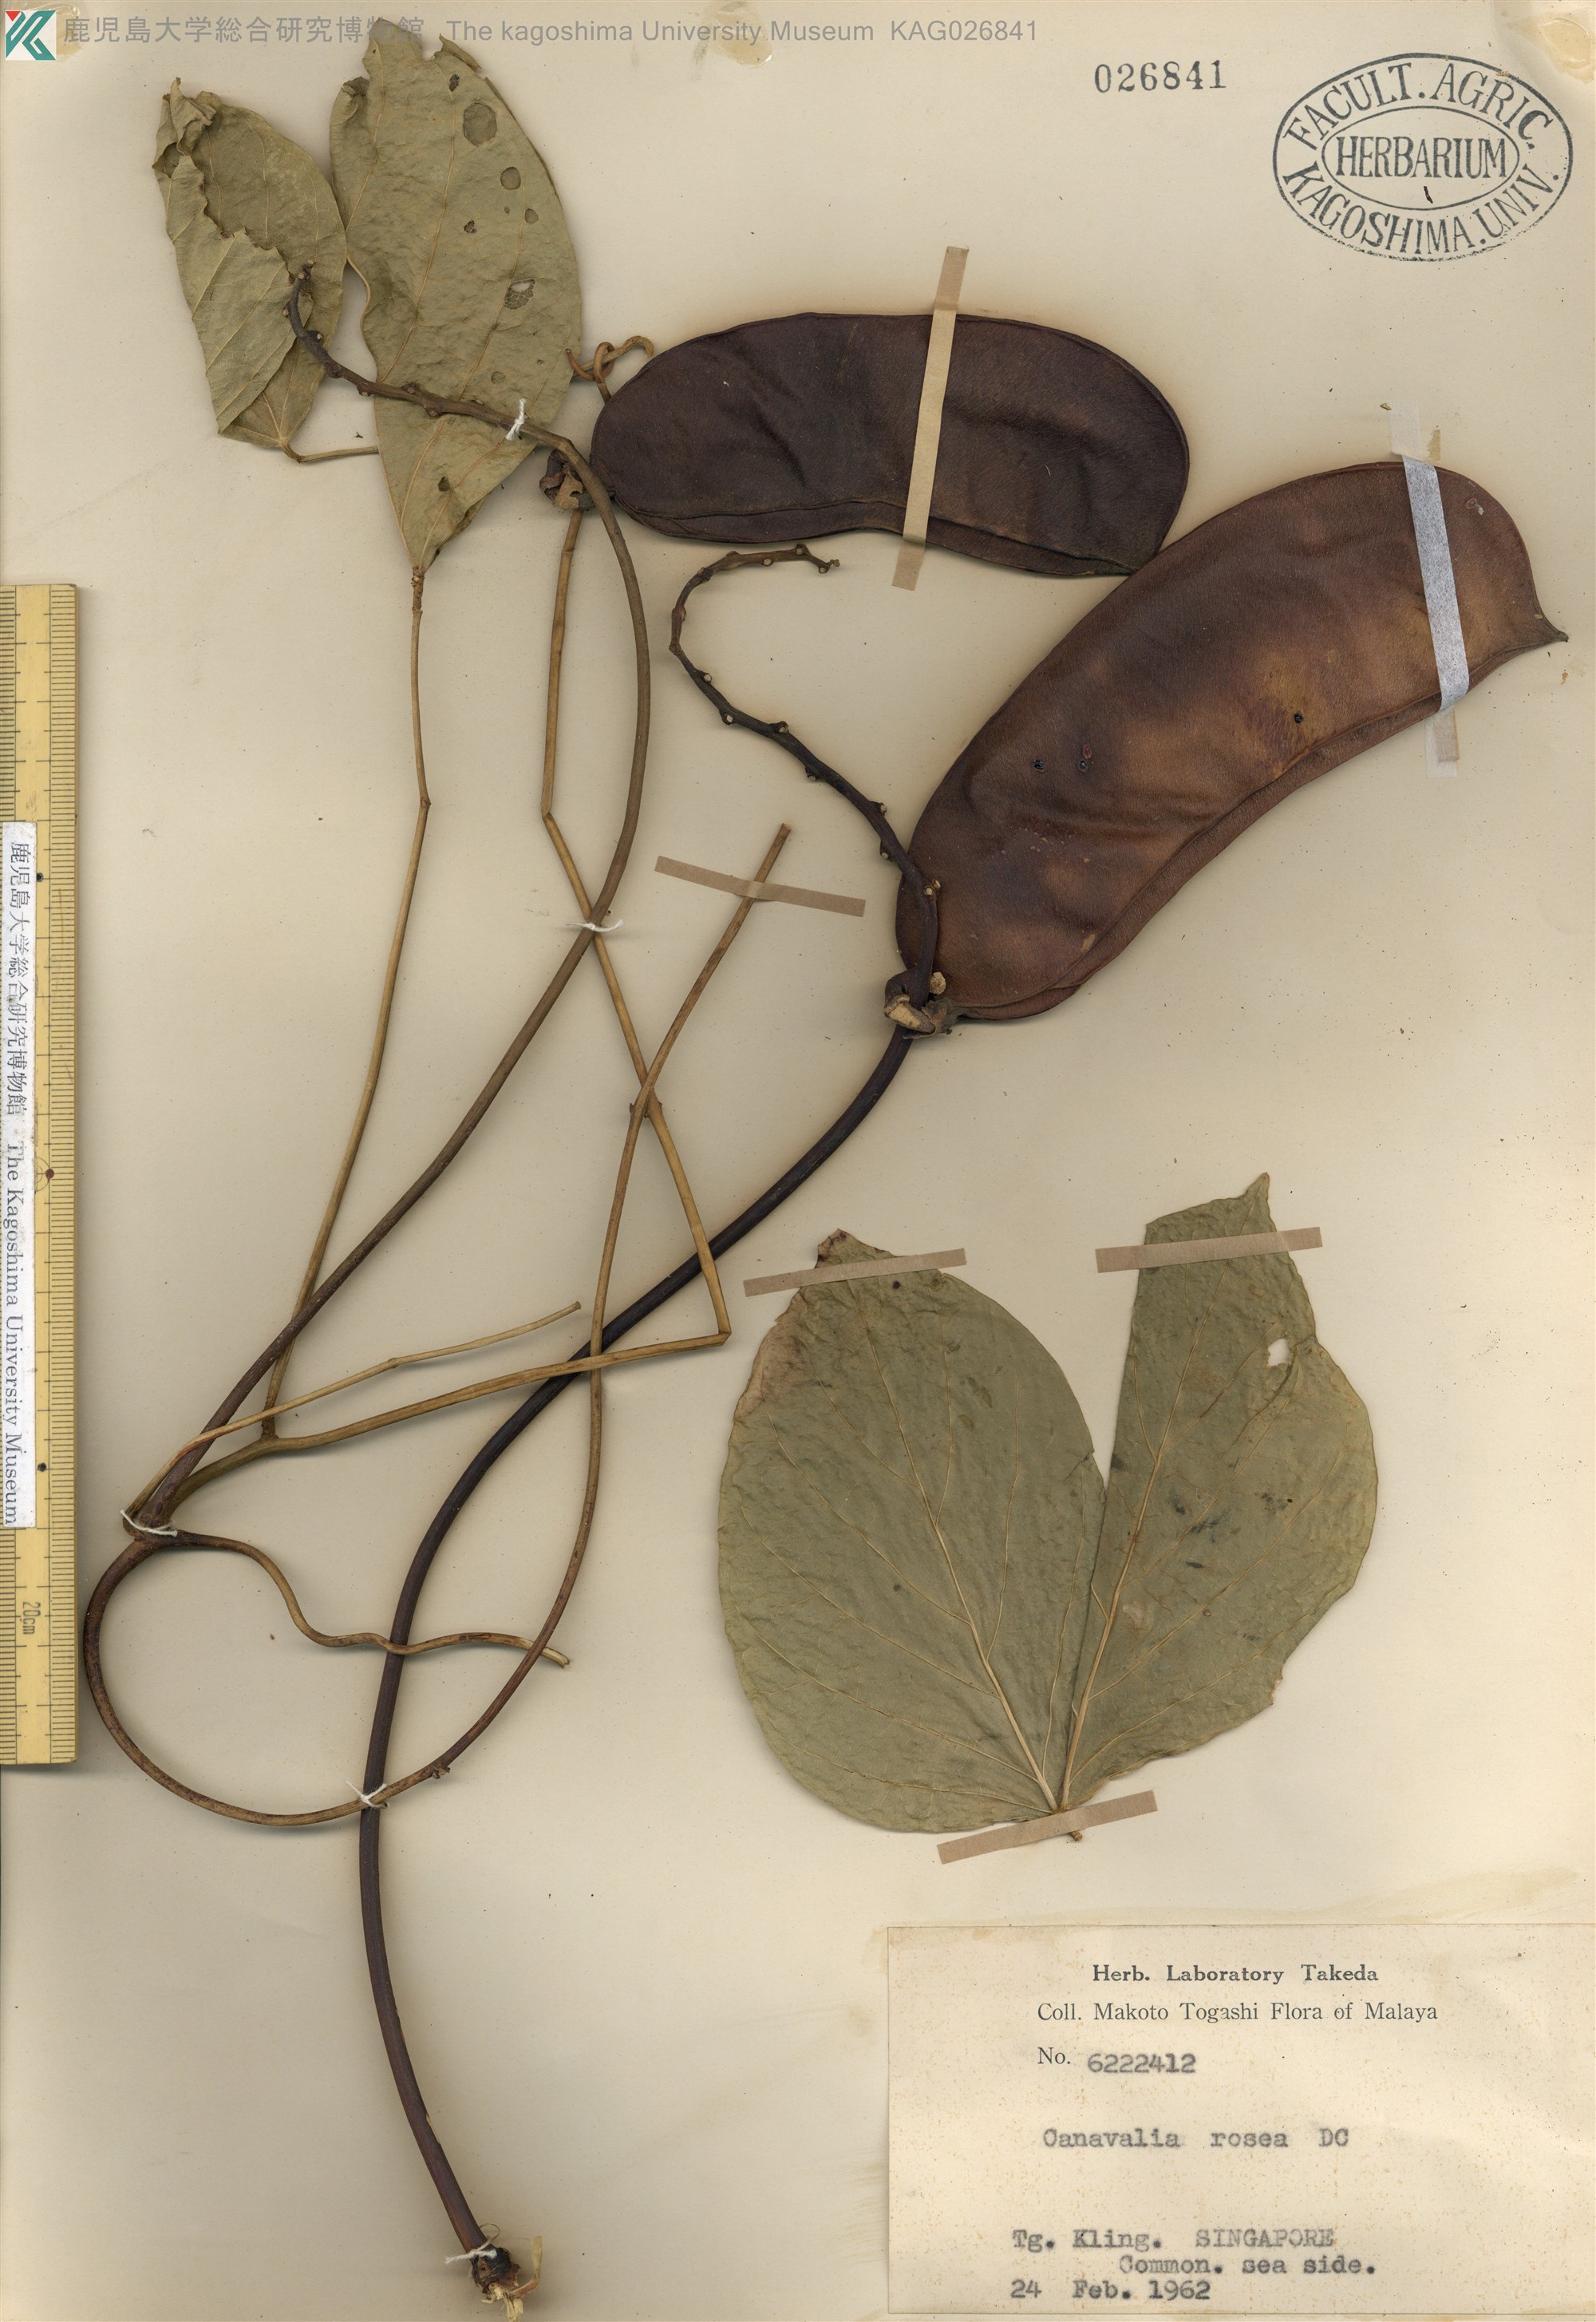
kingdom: Plantae
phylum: Tracheophyta
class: Magnoliopsida
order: Fabales
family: Fabaceae
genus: Canavalia
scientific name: Canavalia rosea
